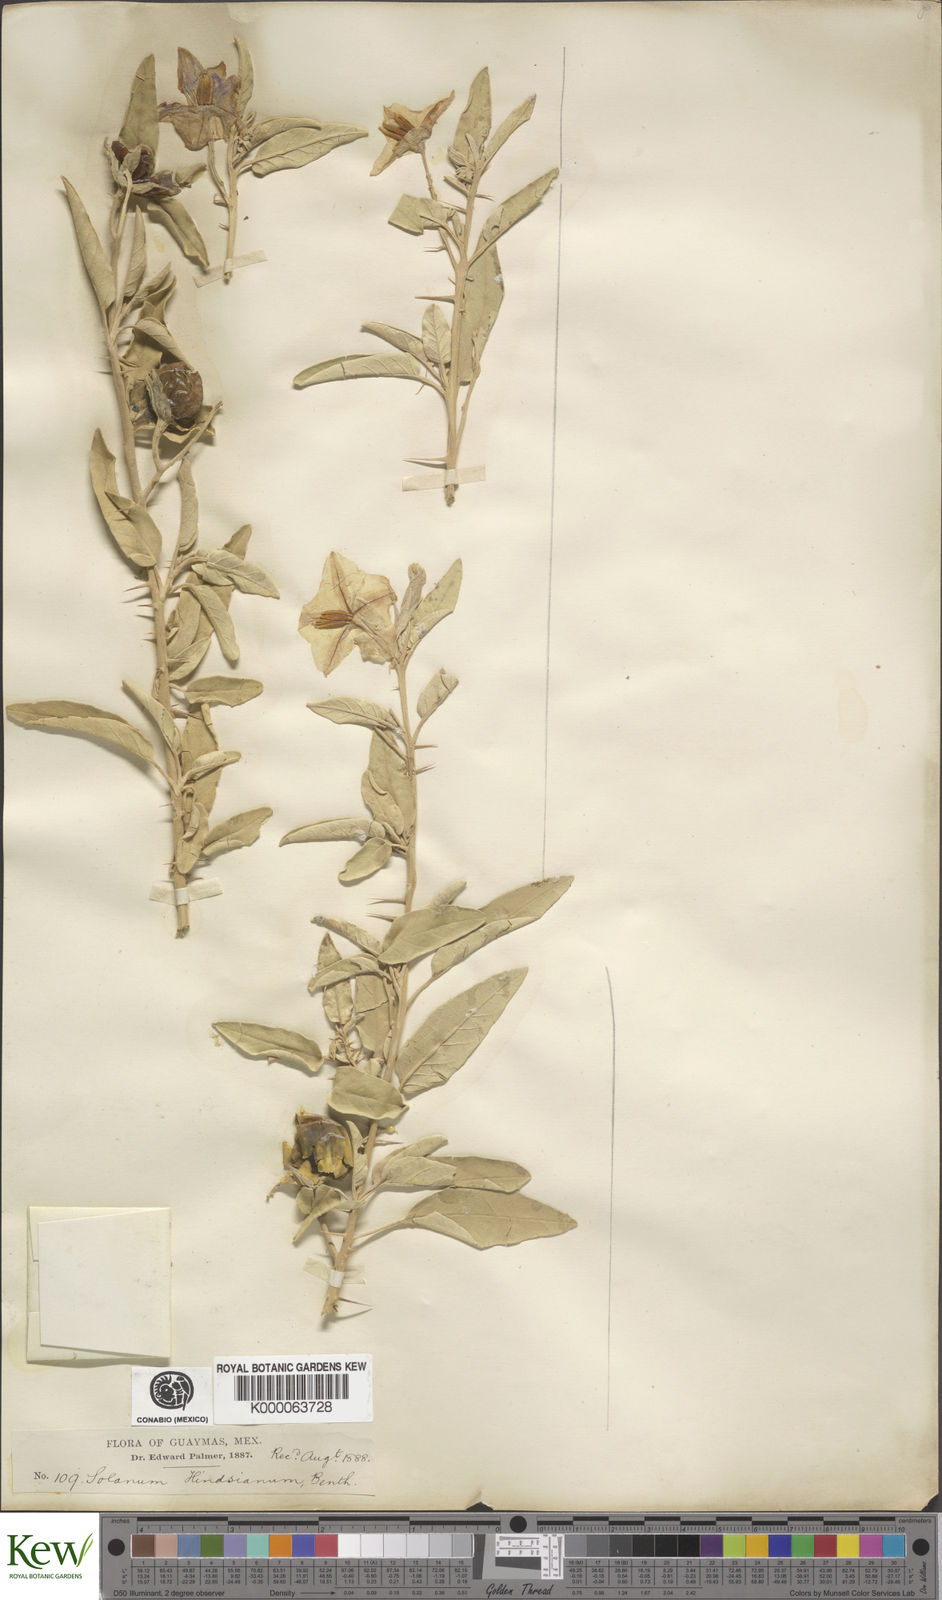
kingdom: Plantae
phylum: Tracheophyta
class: Magnoliopsida
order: Solanales
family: Solanaceae
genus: Solanum
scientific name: Solanum hindsianum
